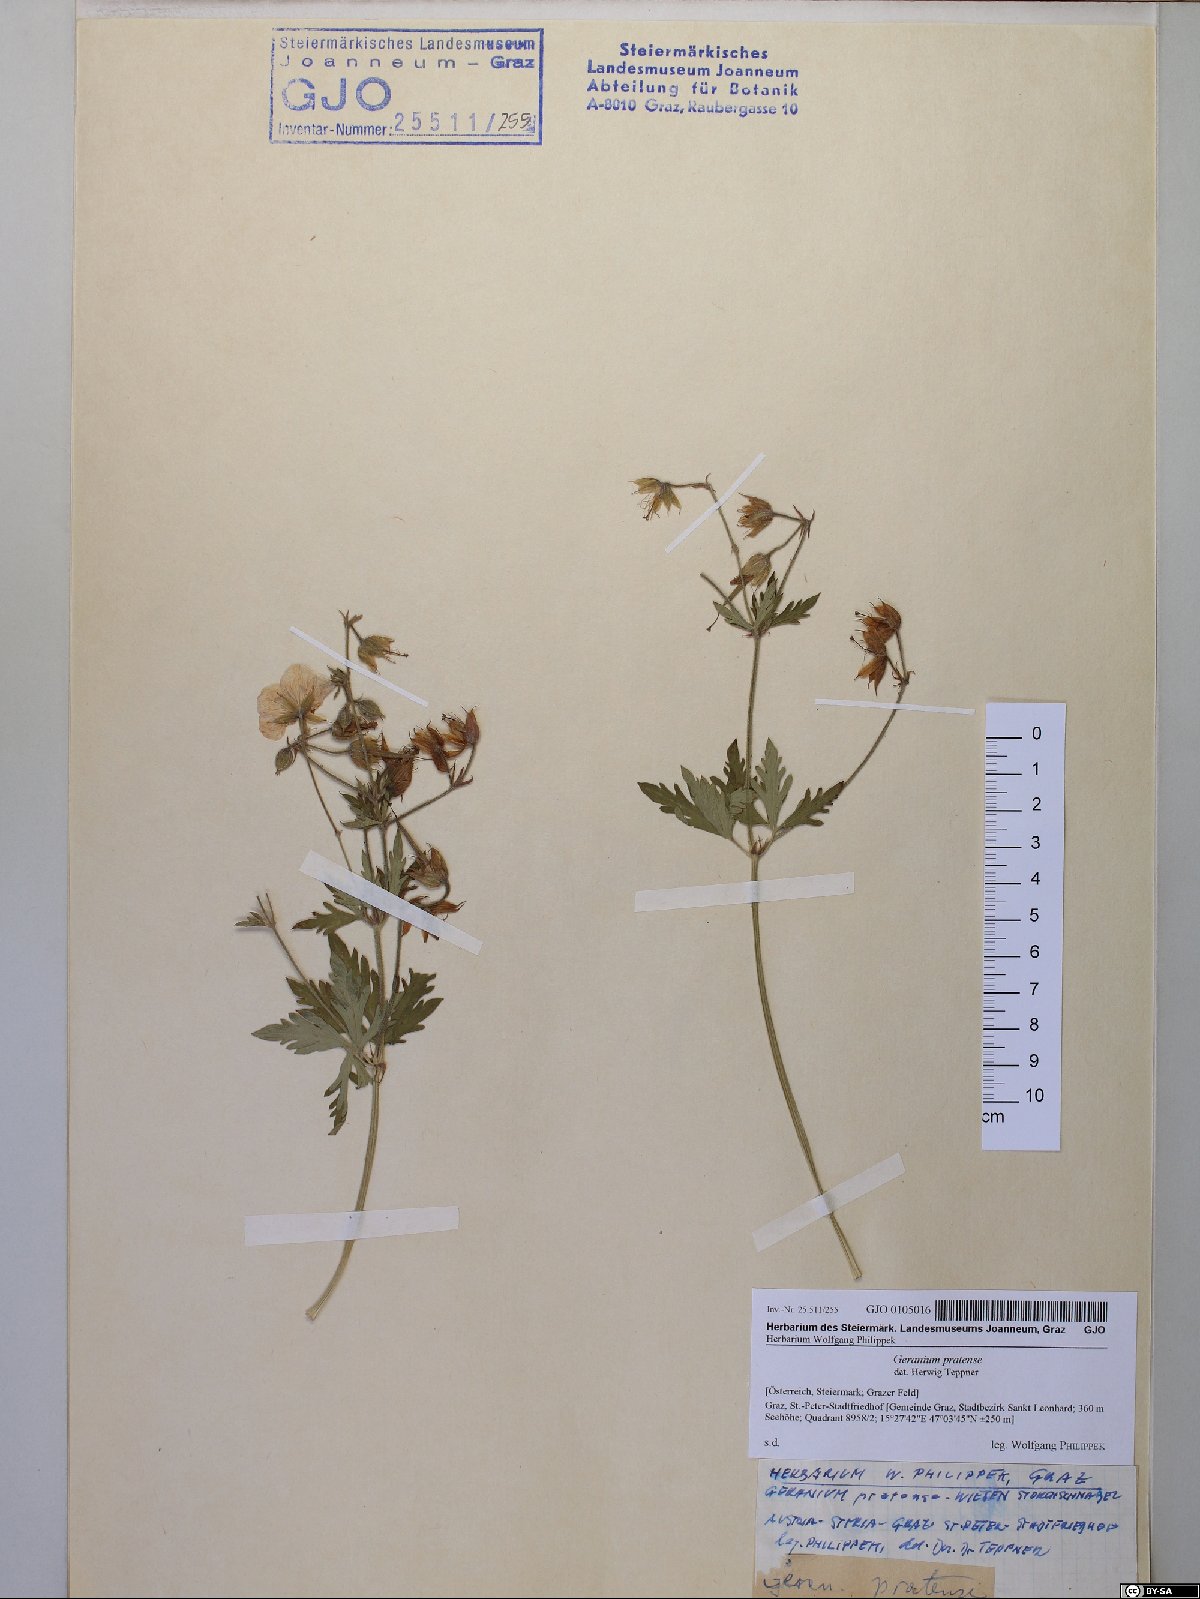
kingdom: Plantae
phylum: Tracheophyta
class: Magnoliopsida
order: Geraniales
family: Geraniaceae
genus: Geranium
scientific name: Geranium pratense
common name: Meadow crane's-bill
